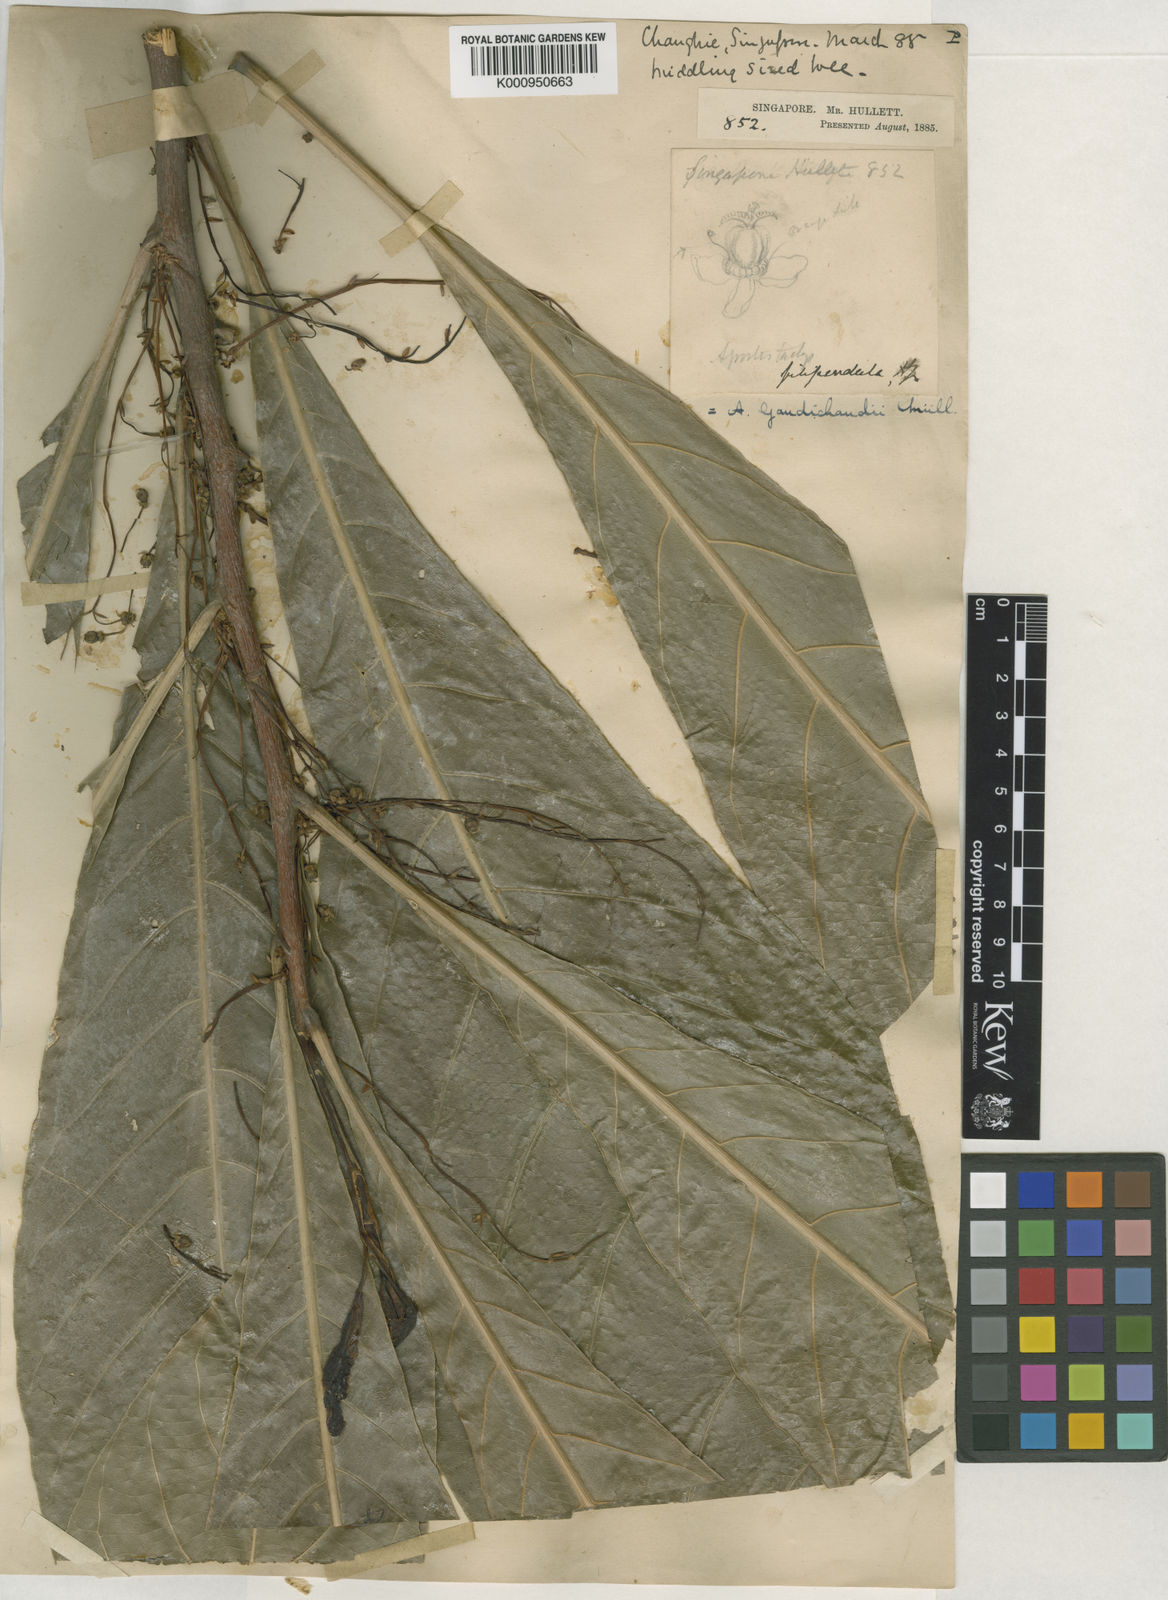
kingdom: Plantae
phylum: Tracheophyta
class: Magnoliopsida
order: Malpighiales
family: Euphorbiaceae
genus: Agrostistachys
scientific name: Agrostistachys gaudichaudii
